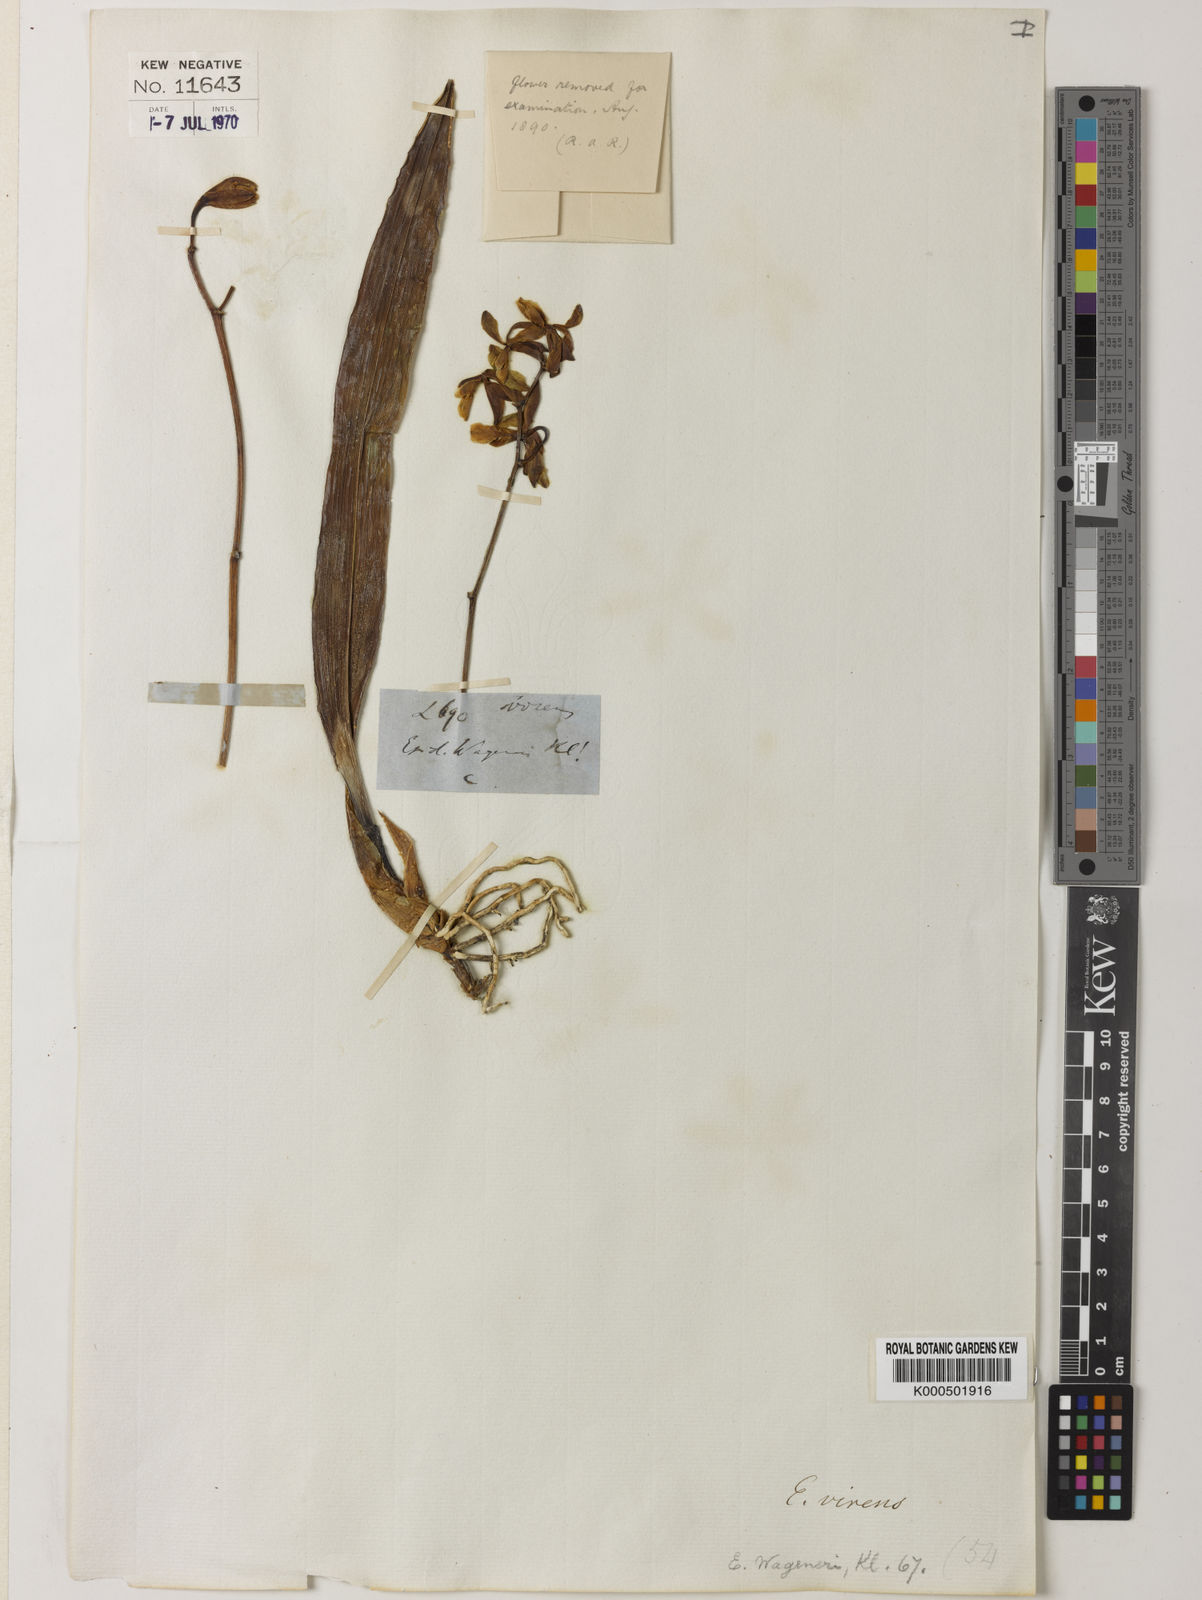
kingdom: Plantae
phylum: Tracheophyta
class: Liliopsida
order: Asparagales
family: Orchidaceae
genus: Encyclia
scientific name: Encyclia diurna
